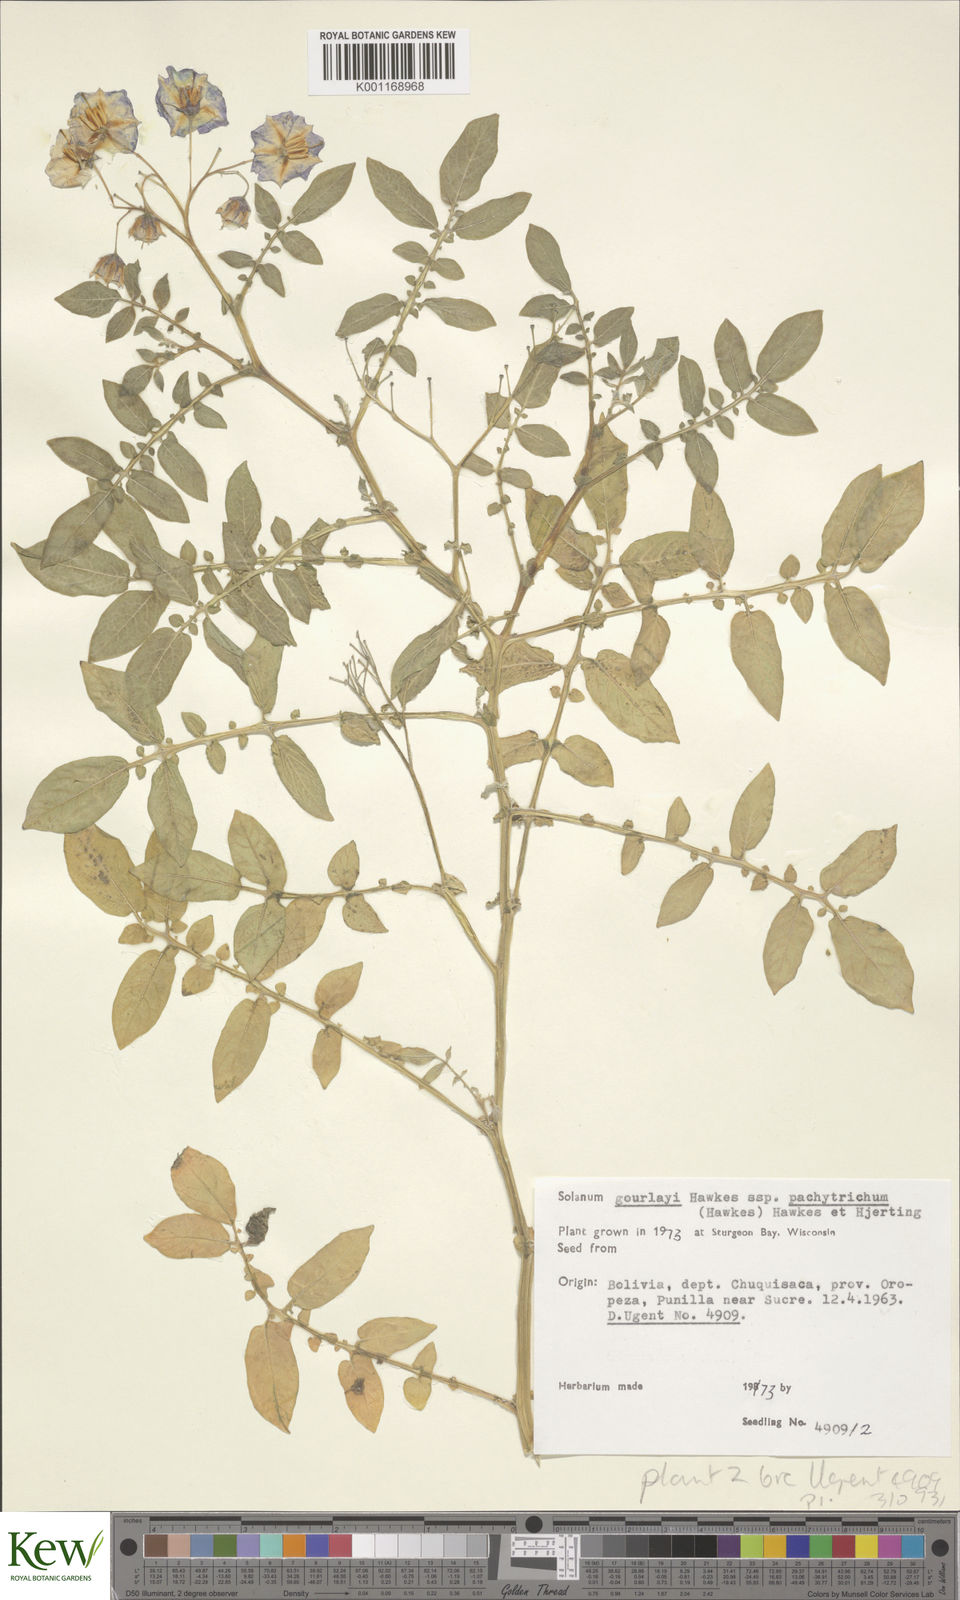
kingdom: Plantae
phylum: Tracheophyta
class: Magnoliopsida
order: Solanales
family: Solanaceae
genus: Solanum
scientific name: Solanum brevicaule
